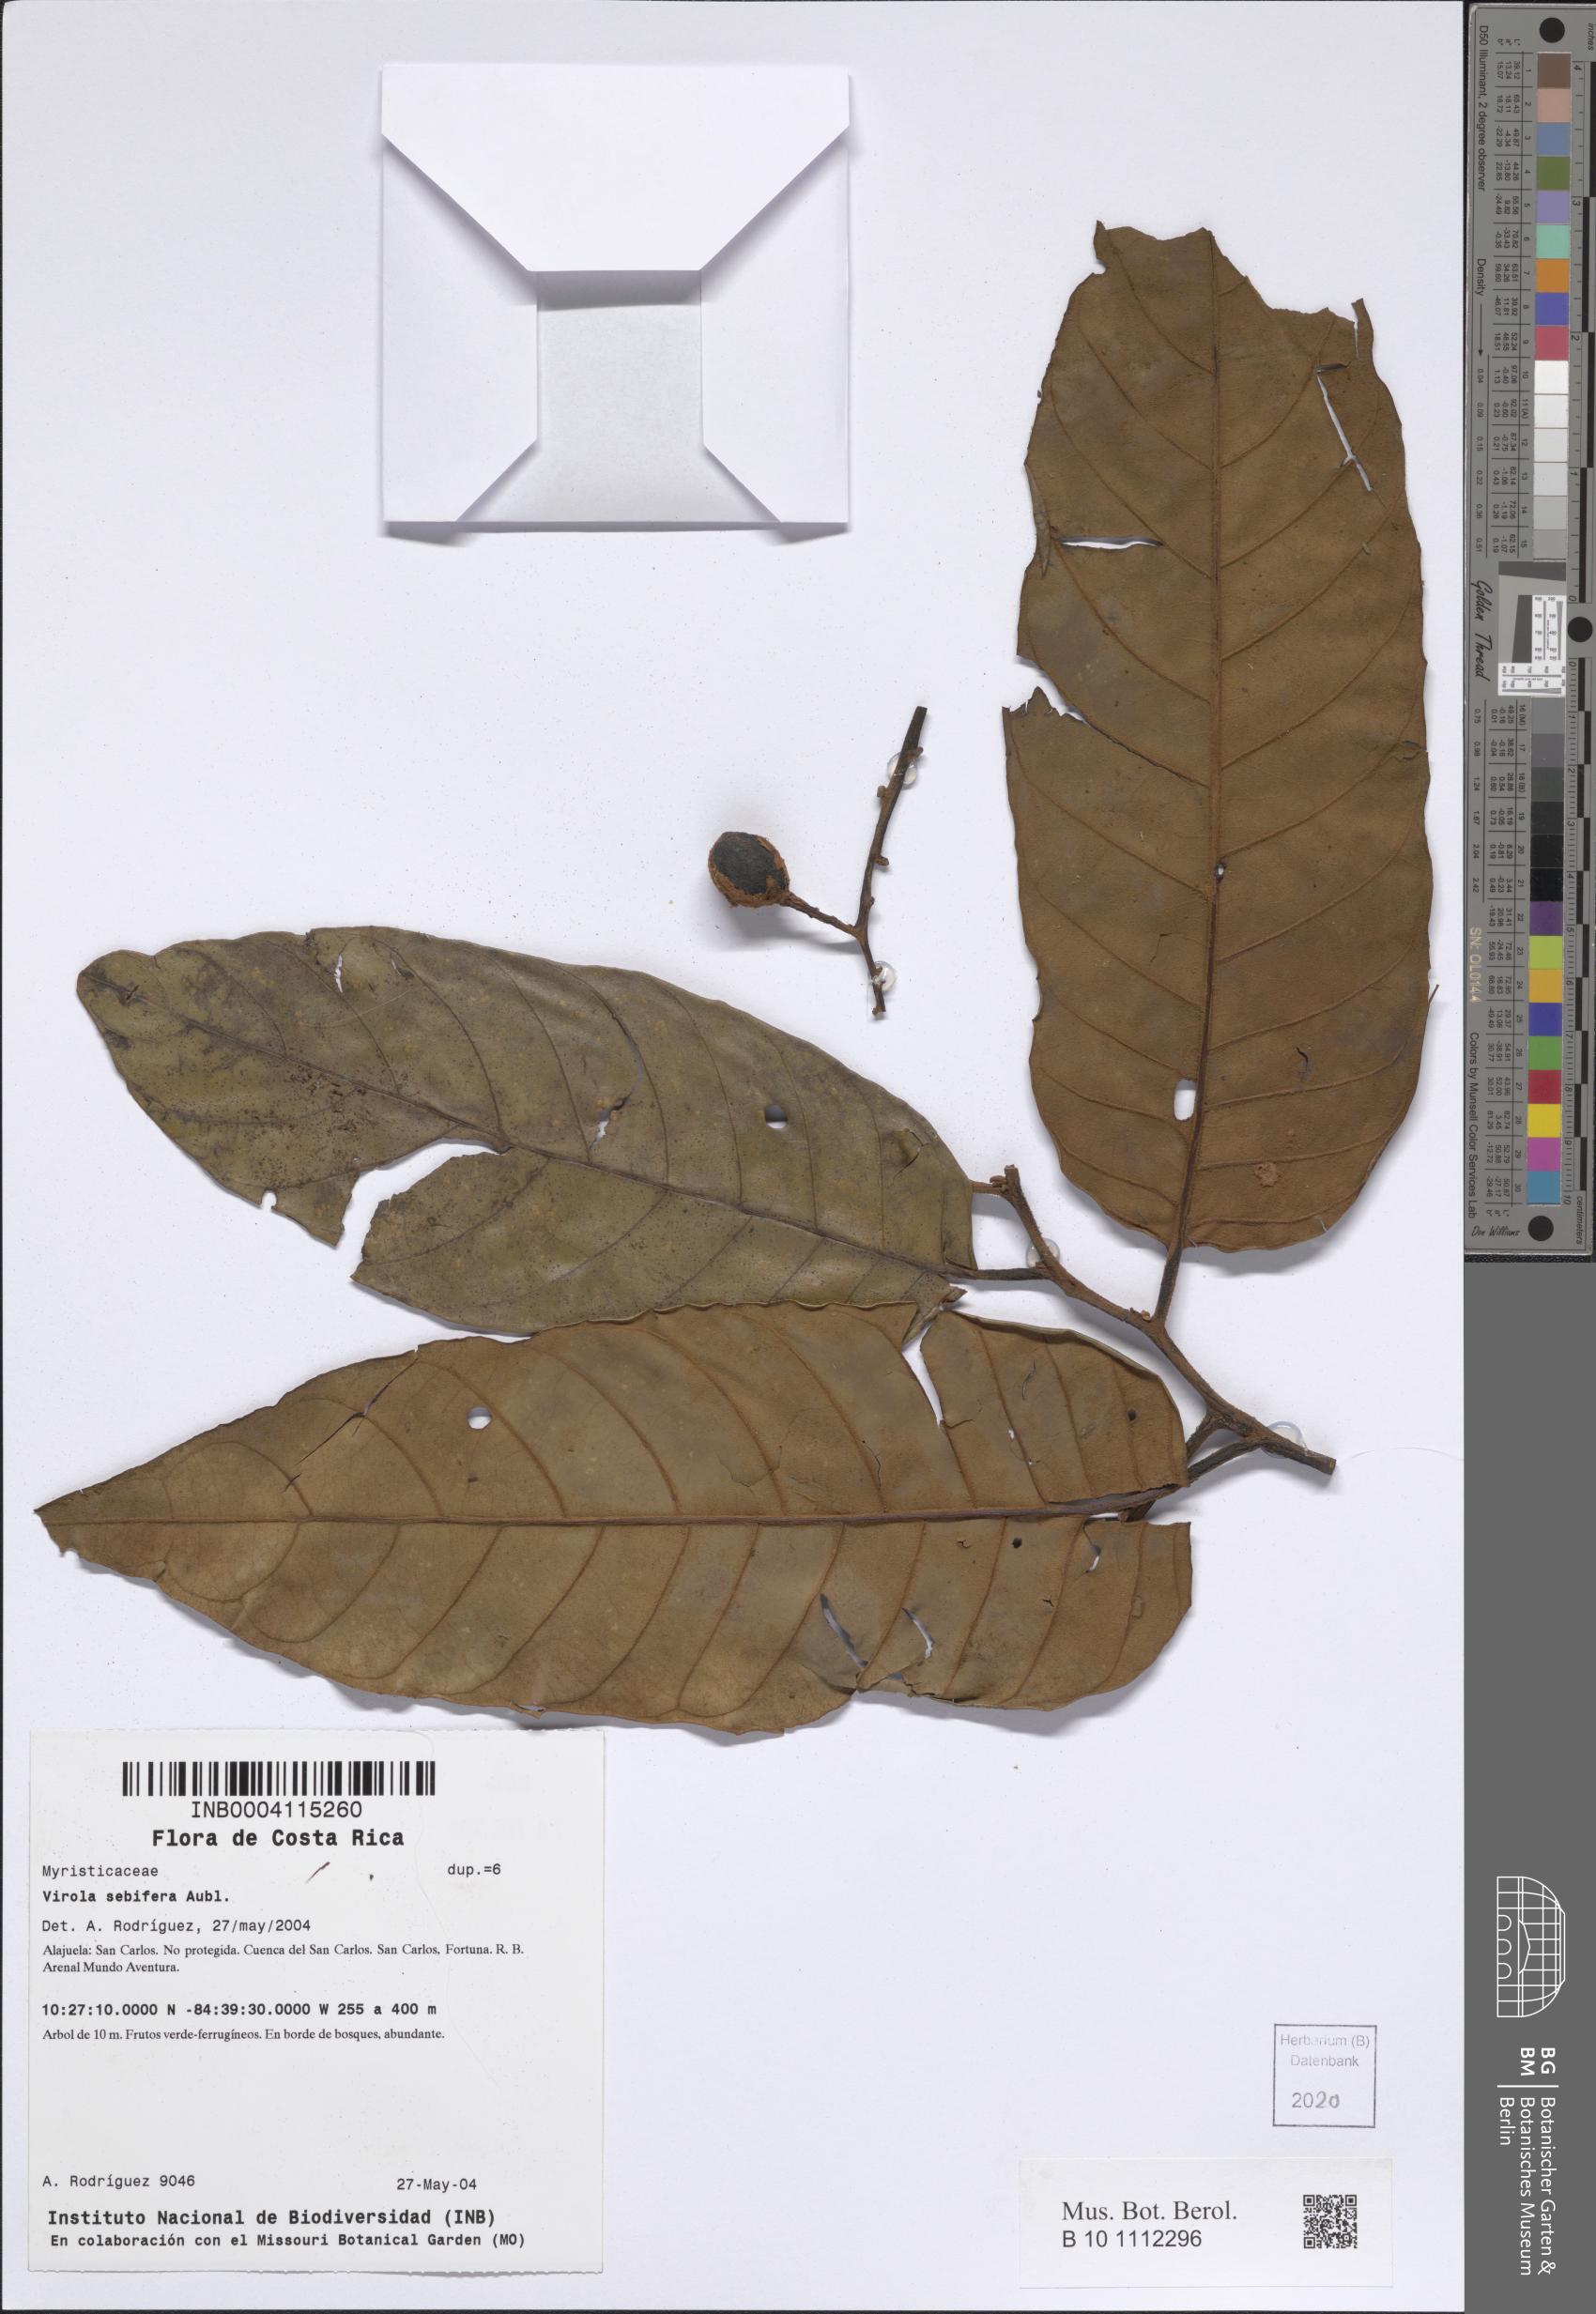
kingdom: Plantae
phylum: Tracheophyta
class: Magnoliopsida
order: Magnoliales
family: Myristicaceae
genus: Virola
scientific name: Virola sebifera
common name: Red ucuuba
